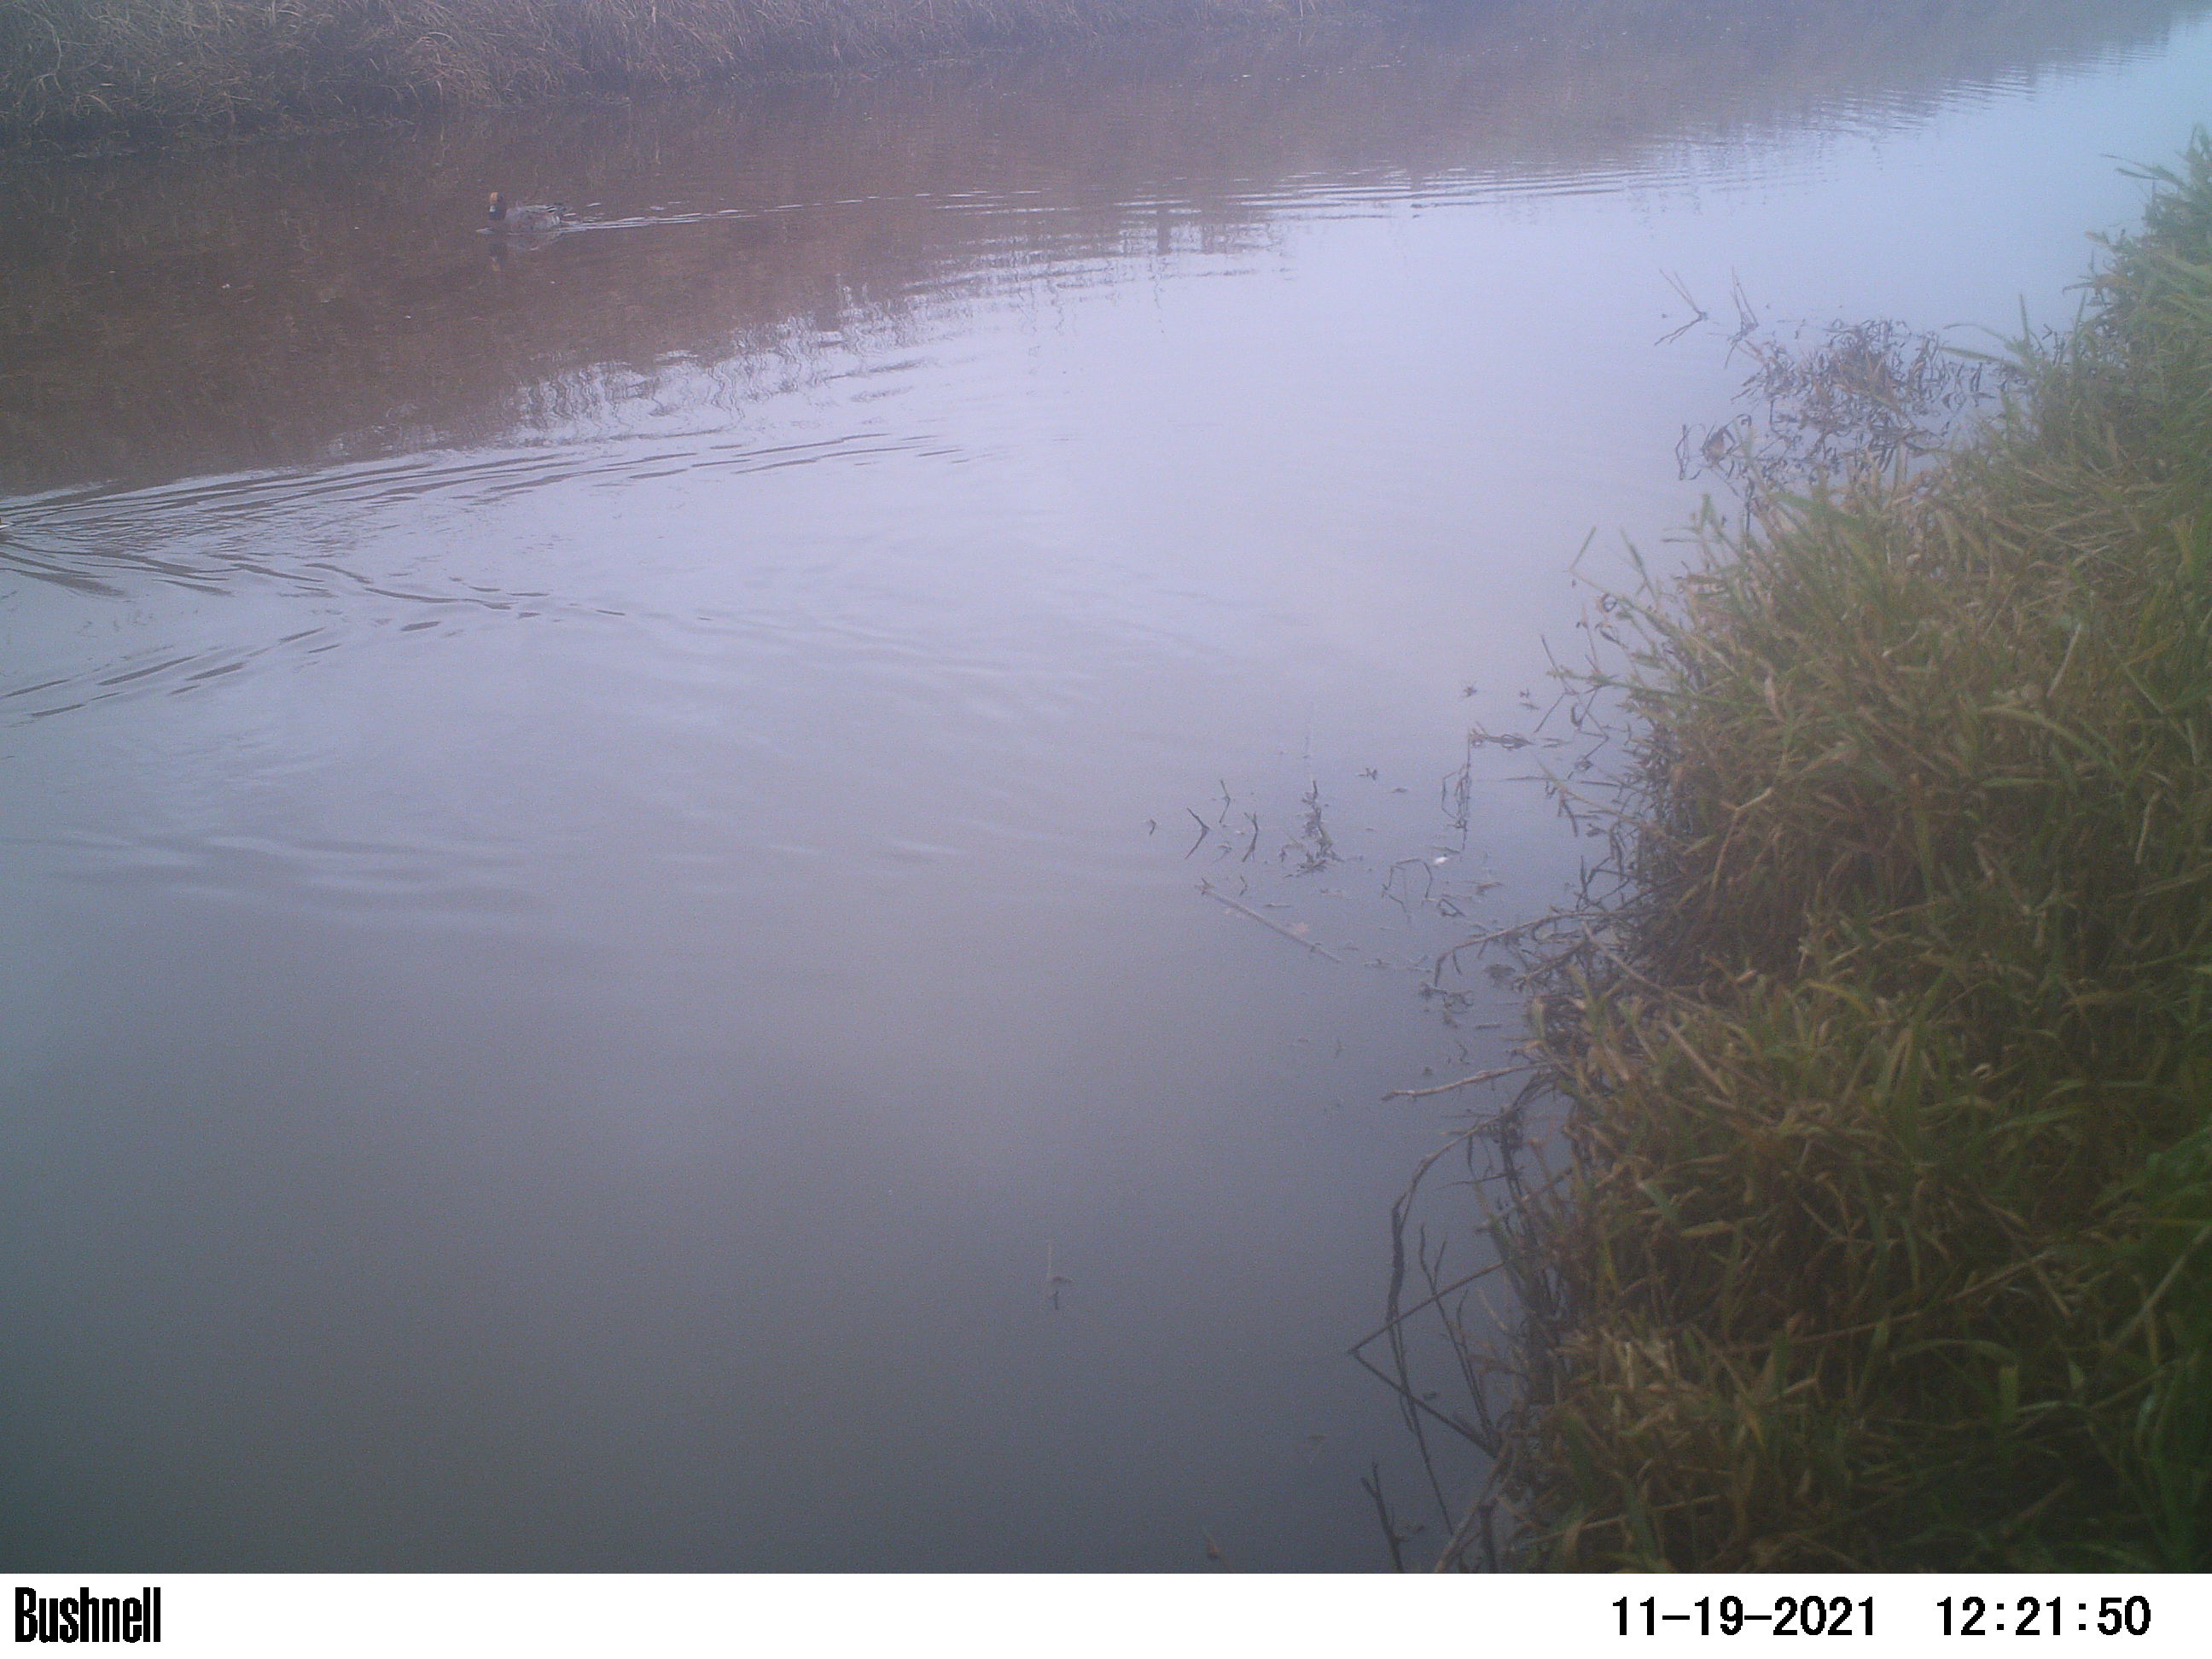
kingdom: Animalia
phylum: Chordata
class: Aves
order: Anseriformes
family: Anatidae
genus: Anas
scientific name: Anas
